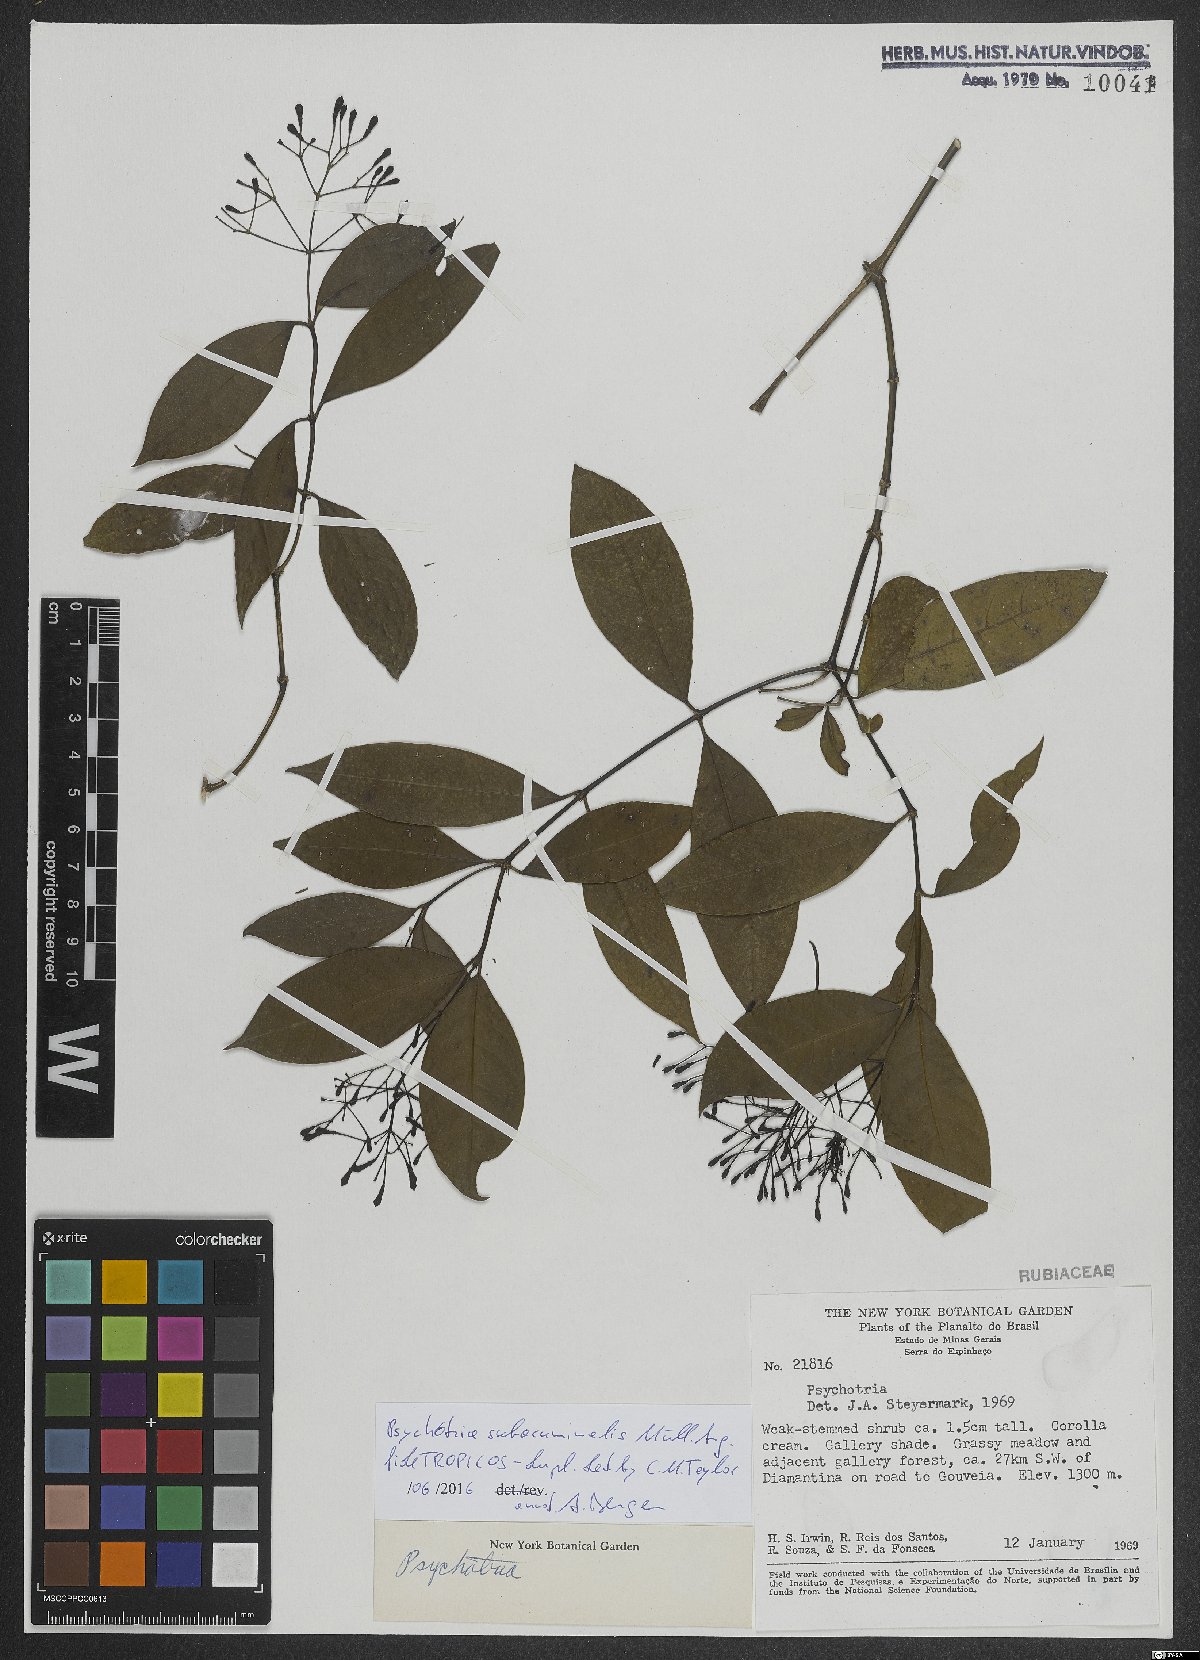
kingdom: Plantae
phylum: Tracheophyta
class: Magnoliopsida
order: Gentianales
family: Rubiaceae
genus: Psychotria
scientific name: Psychotria subacuminalis
